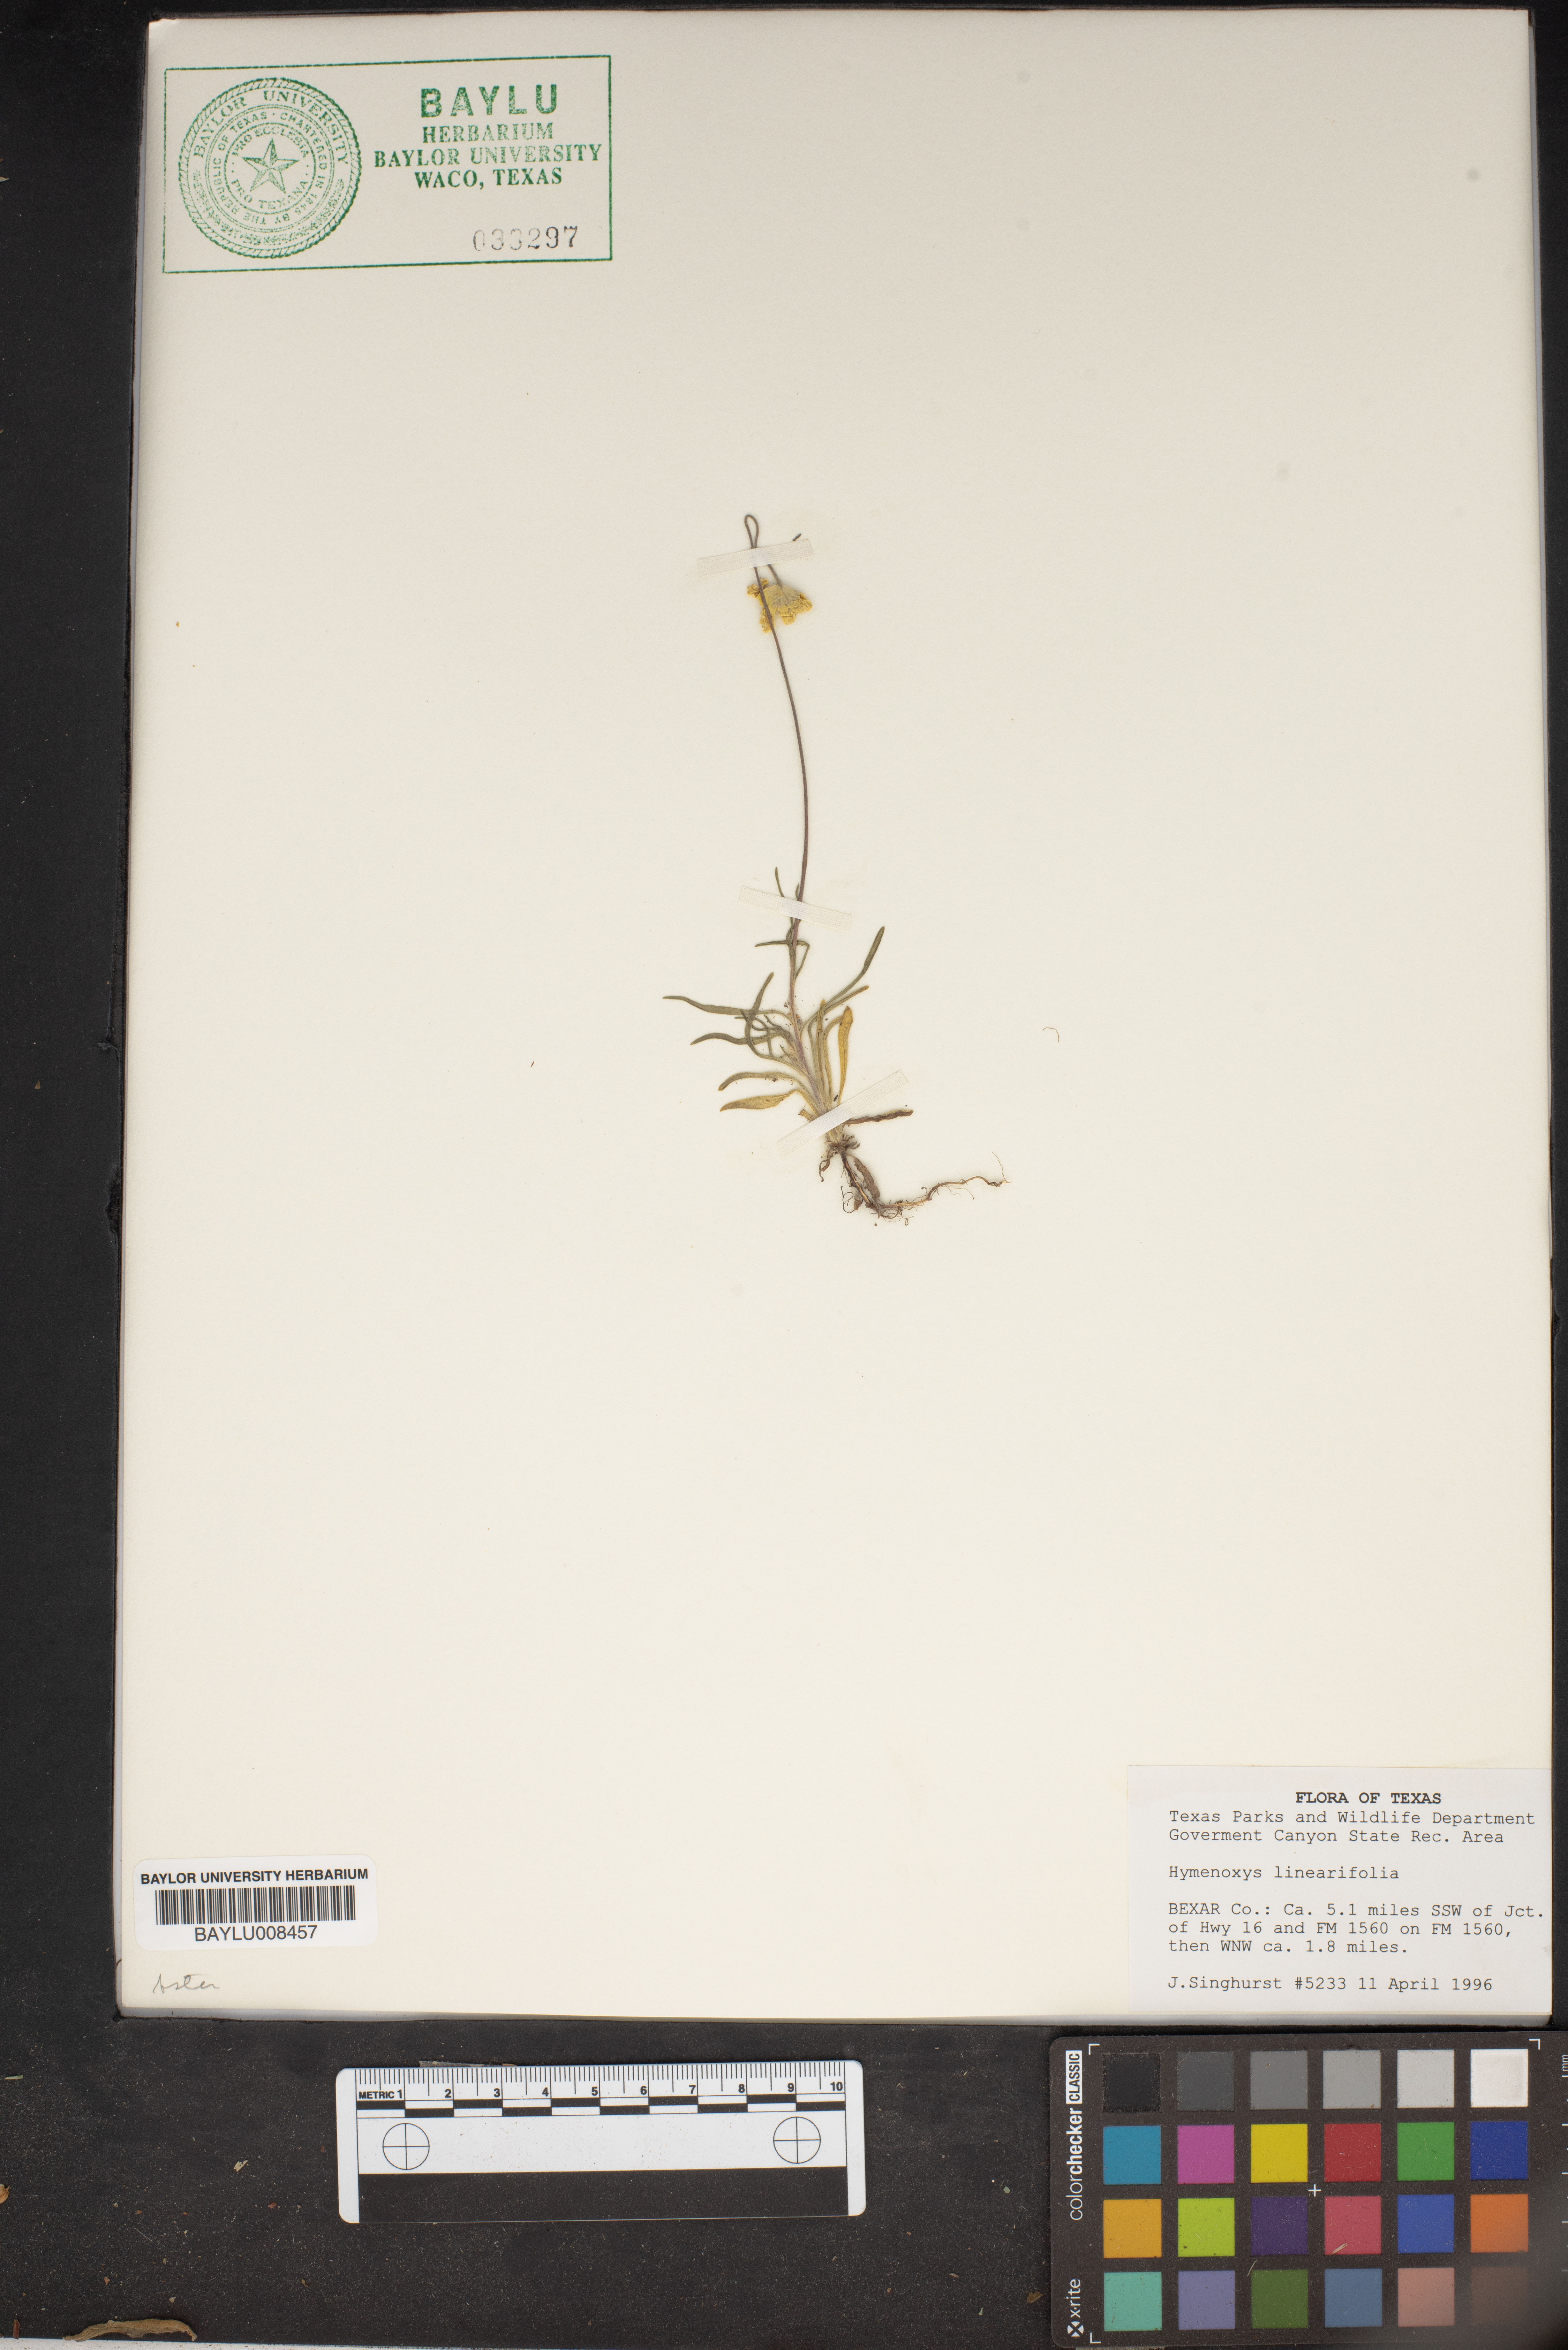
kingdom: Plantae
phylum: Tracheophyta
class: Magnoliopsida
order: Asterales
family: Asteraceae
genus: Tetraneuris
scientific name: Tetraneuris linearifolia
